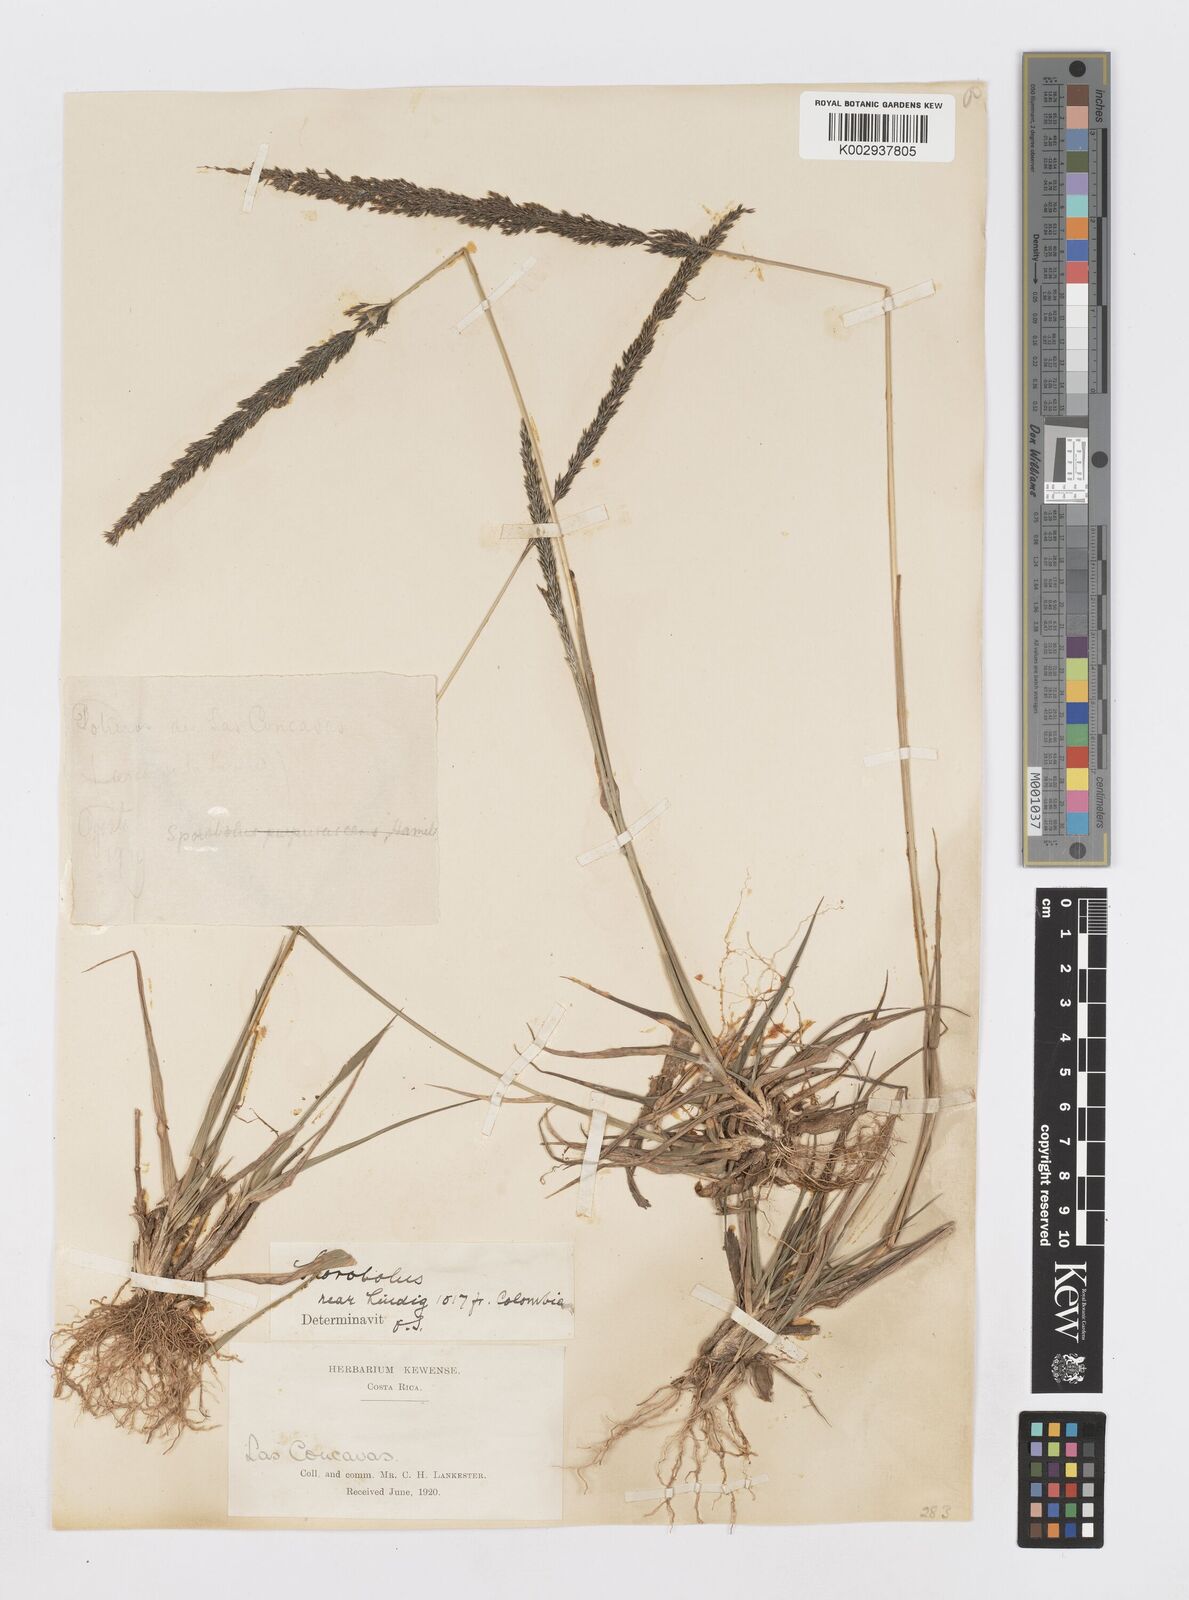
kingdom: Plantae
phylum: Tracheophyta
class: Liliopsida
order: Poales
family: Poaceae
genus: Sporobolus
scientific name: Sporobolus purpurascens
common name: Purple dropseed
